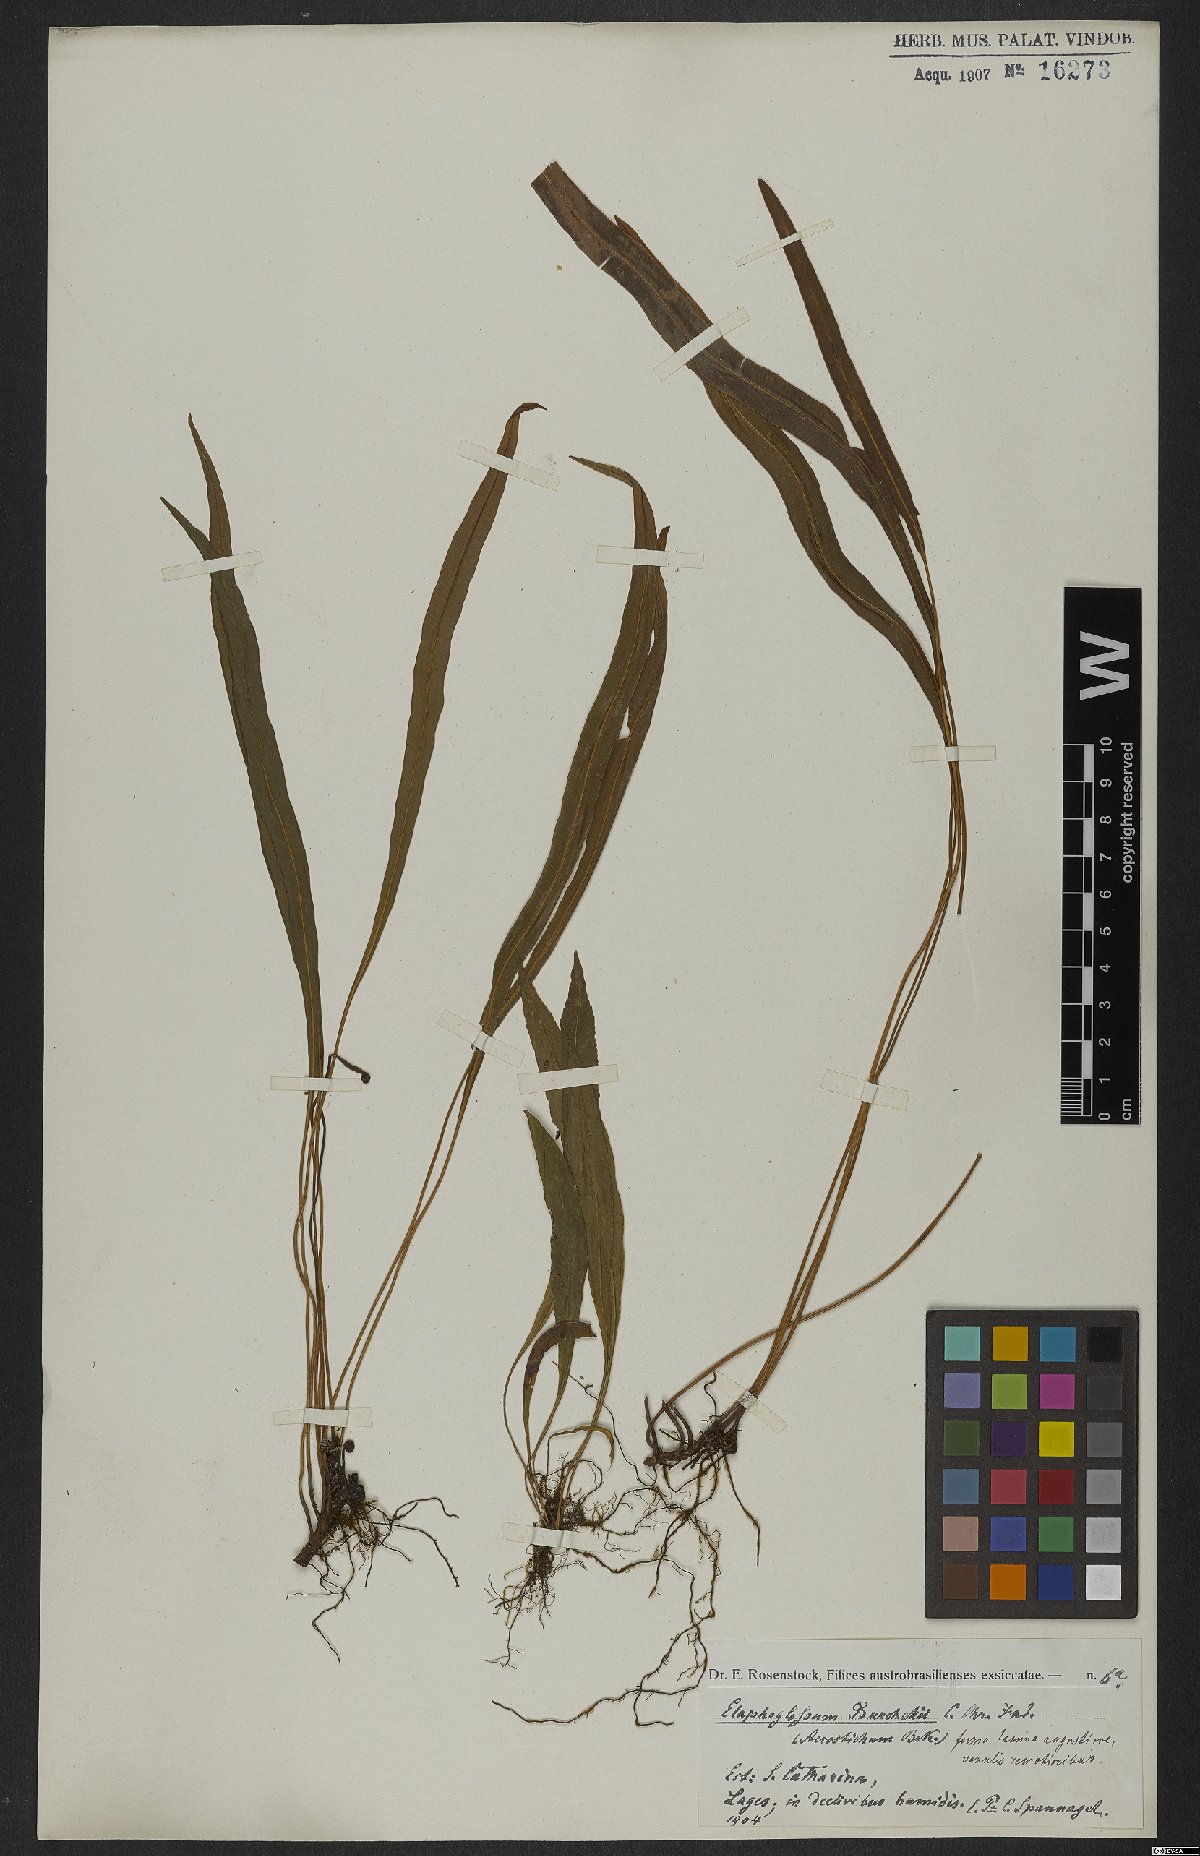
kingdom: Plantae
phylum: Tracheophyta
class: Polypodiopsida
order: Polypodiales
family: Dryopteridaceae
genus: Elaphoglossum
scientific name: Elaphoglossum burchellii
